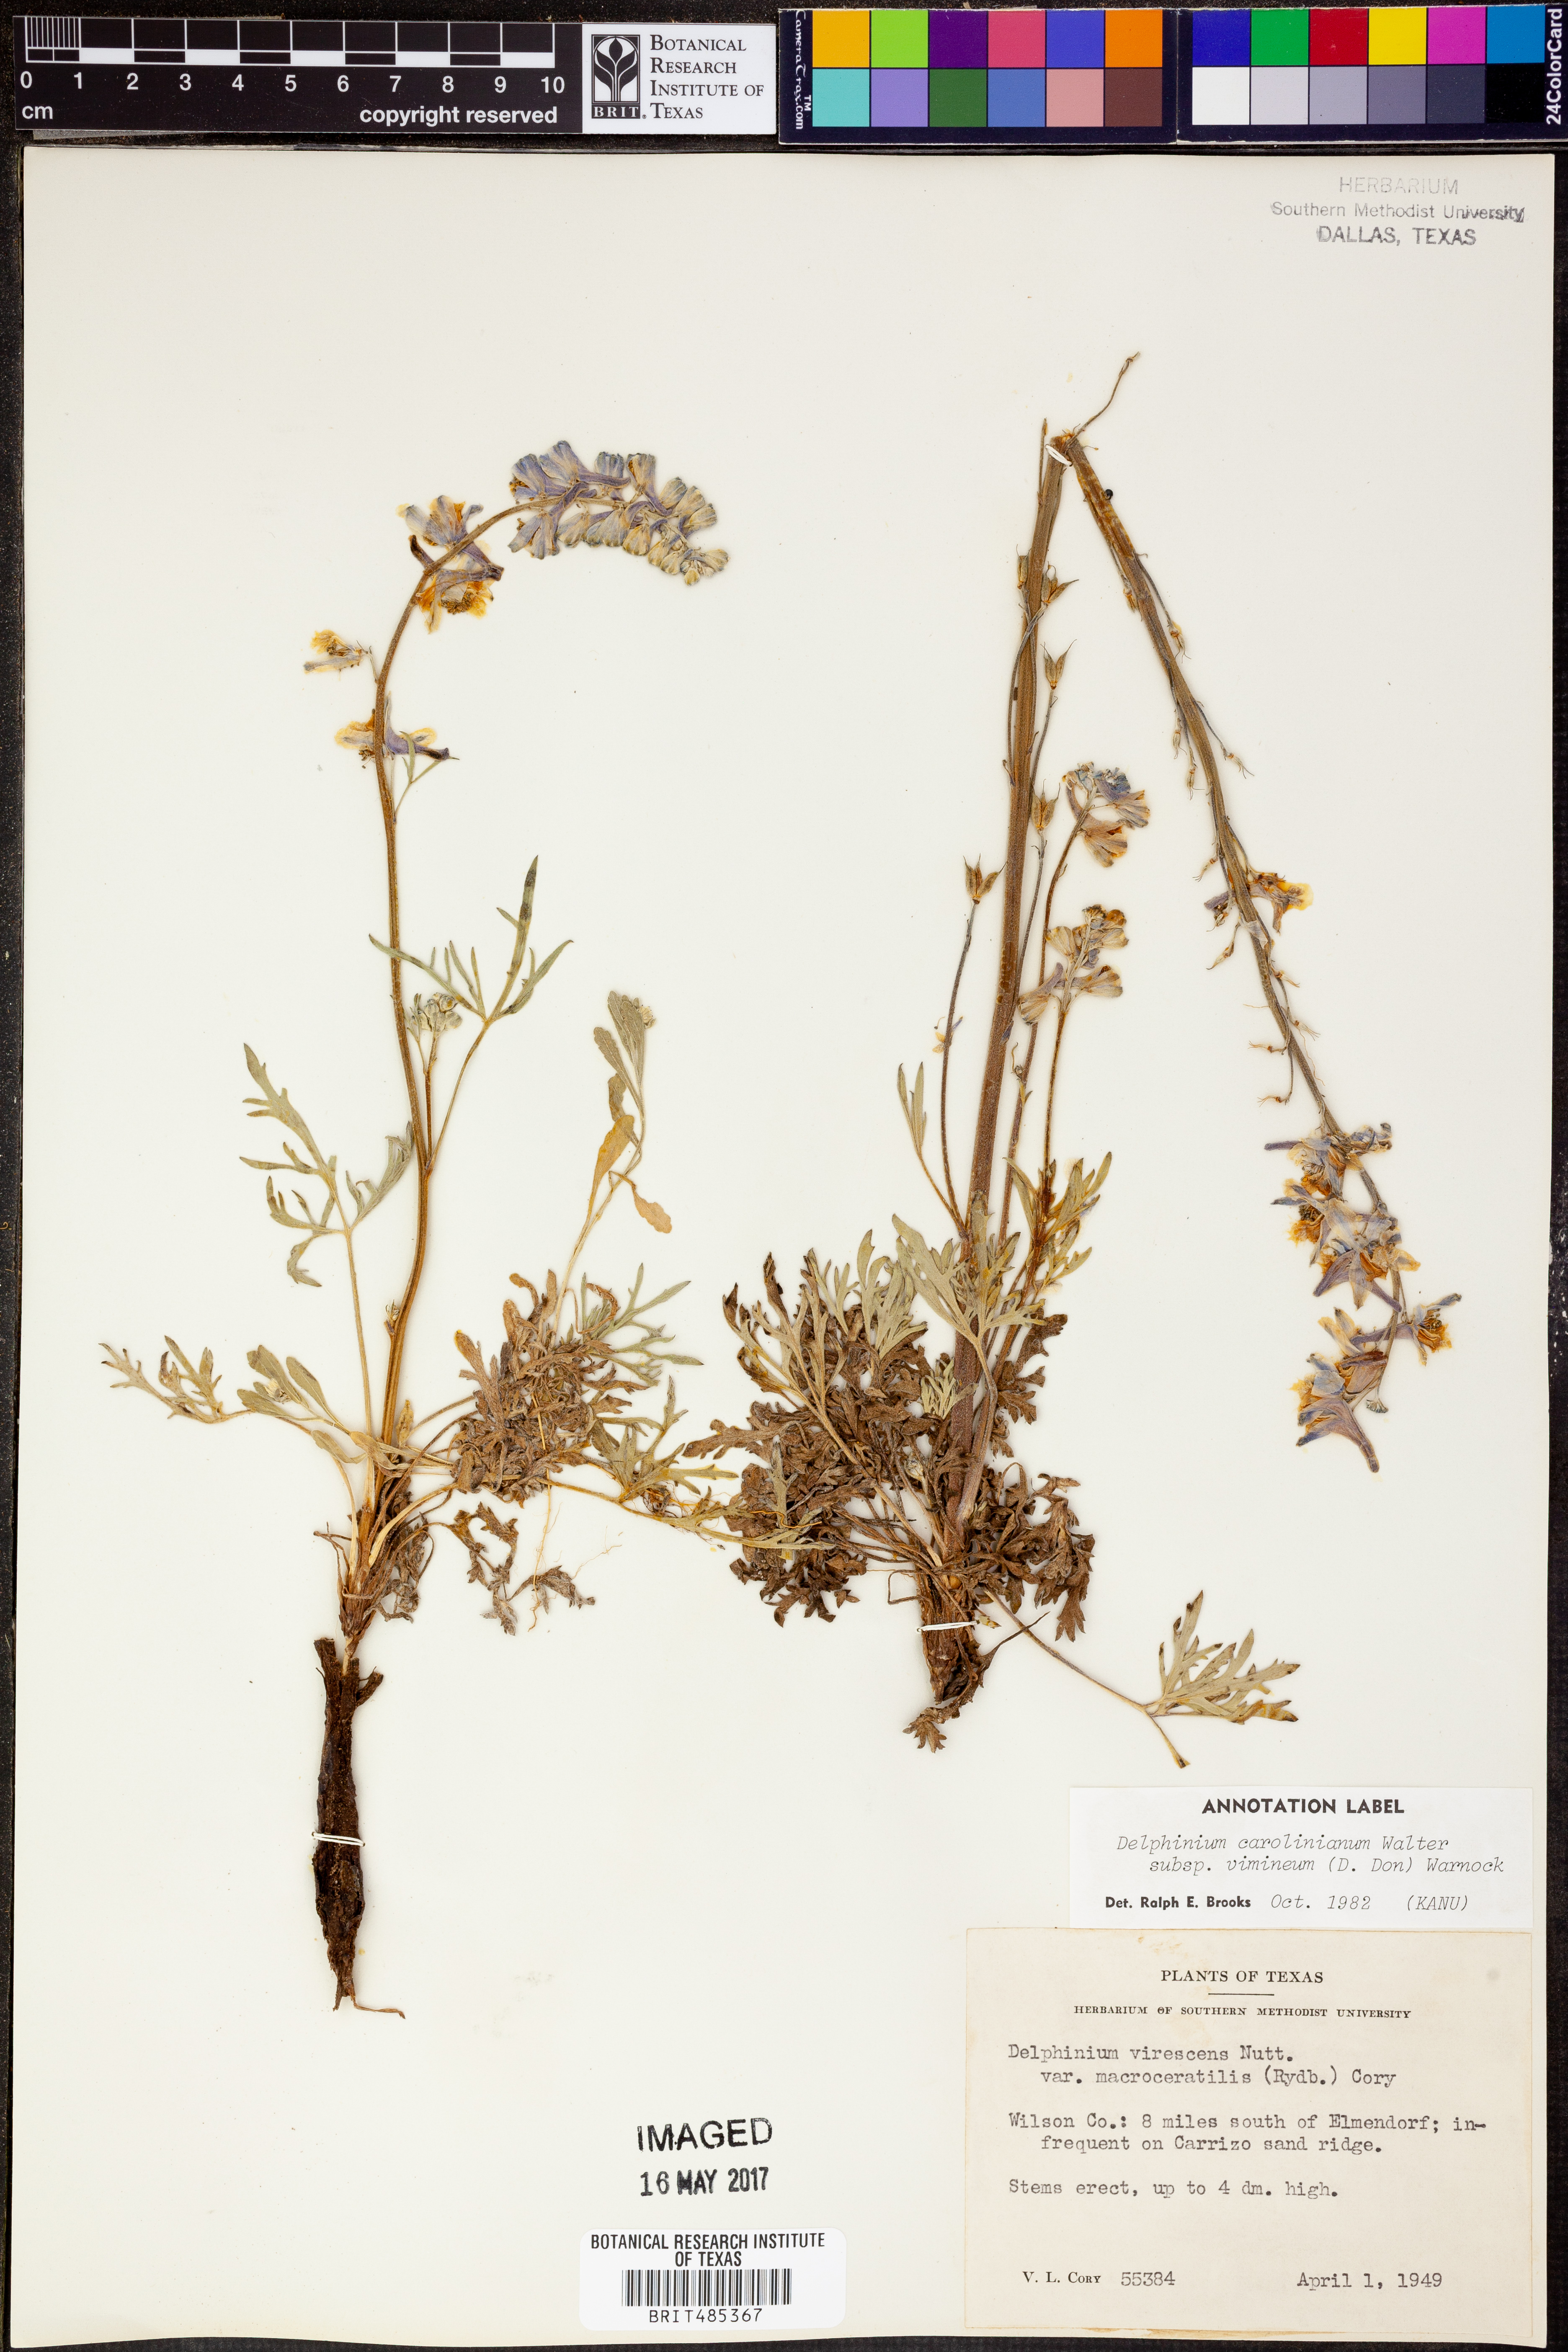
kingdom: Plantae
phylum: Tracheophyta
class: Magnoliopsida
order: Ranunculales
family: Ranunculaceae
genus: Delphinium
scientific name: Delphinium carolinianum
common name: Carolina larkspur
